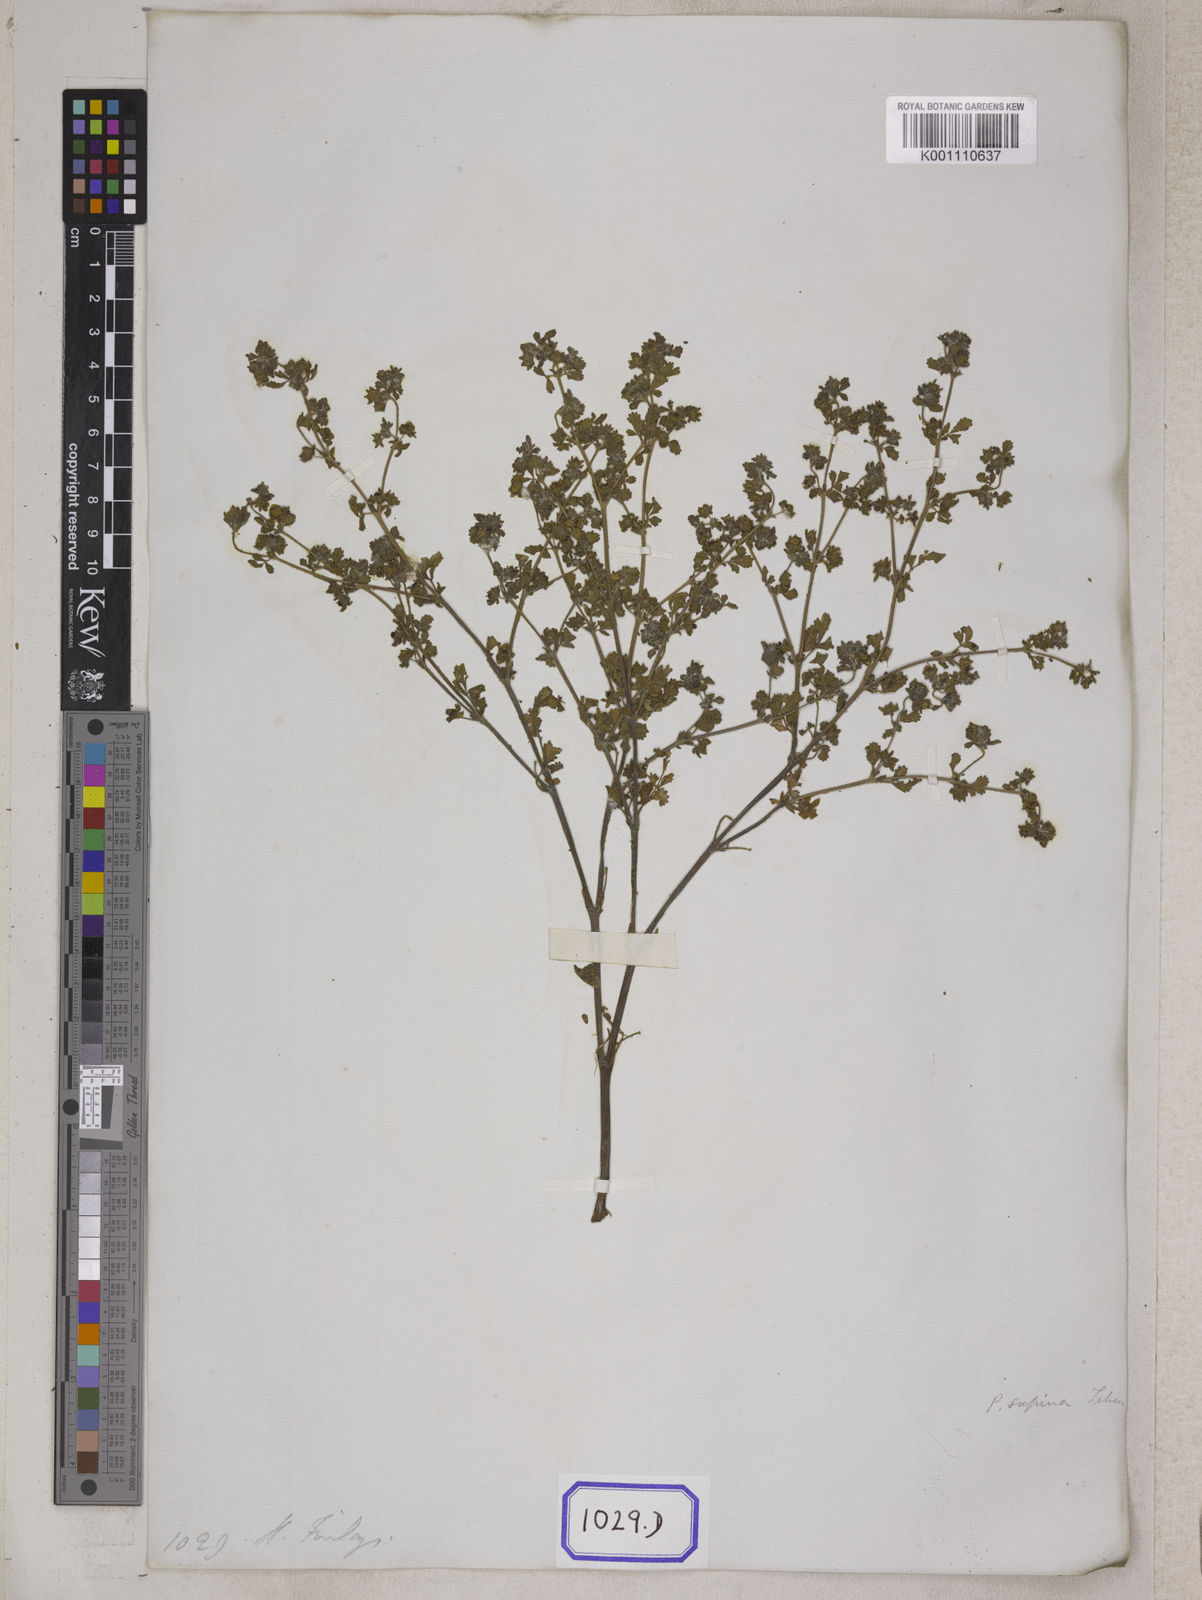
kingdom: Plantae
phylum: Tracheophyta
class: Magnoliopsida
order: Rosales
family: Rosaceae
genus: Potentilla
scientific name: Potentilla supina
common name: Prostrate cinquefoil
